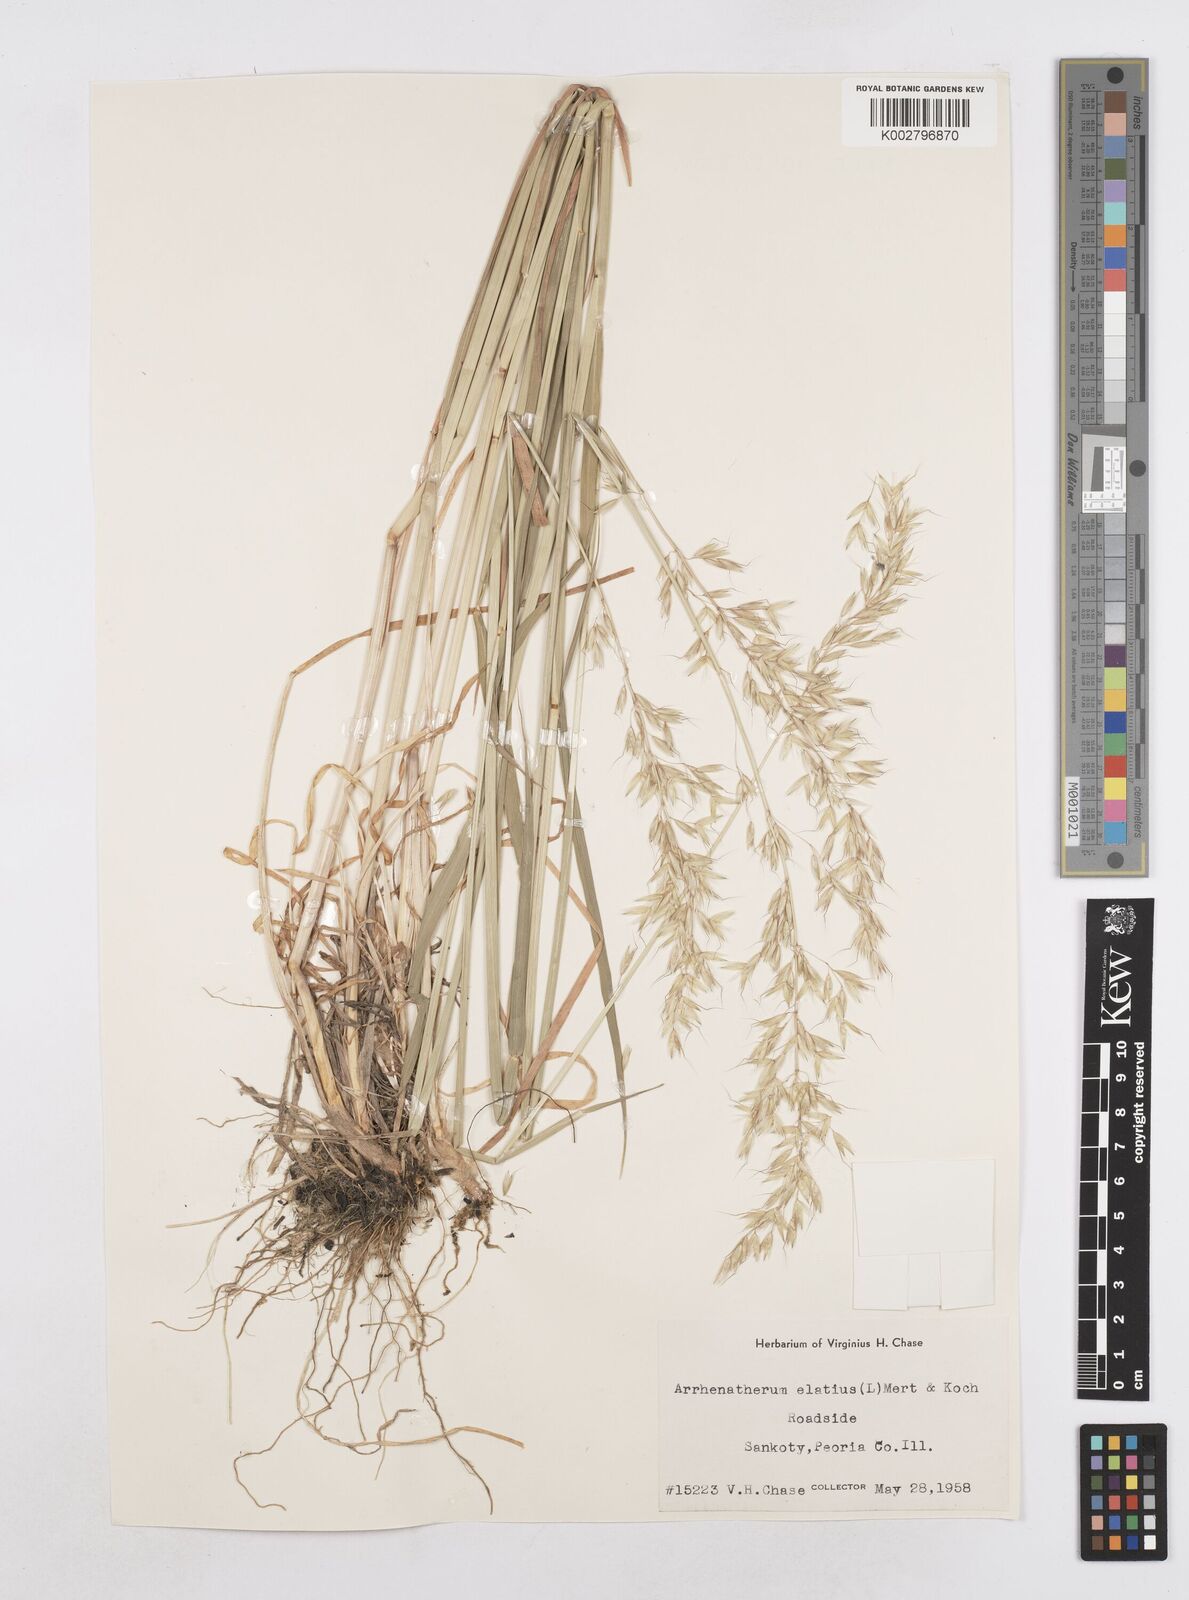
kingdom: Plantae
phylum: Tracheophyta
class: Liliopsida
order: Poales
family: Poaceae
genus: Arrhenatherum
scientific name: Arrhenatherum elatius
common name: Tall oatgrass
